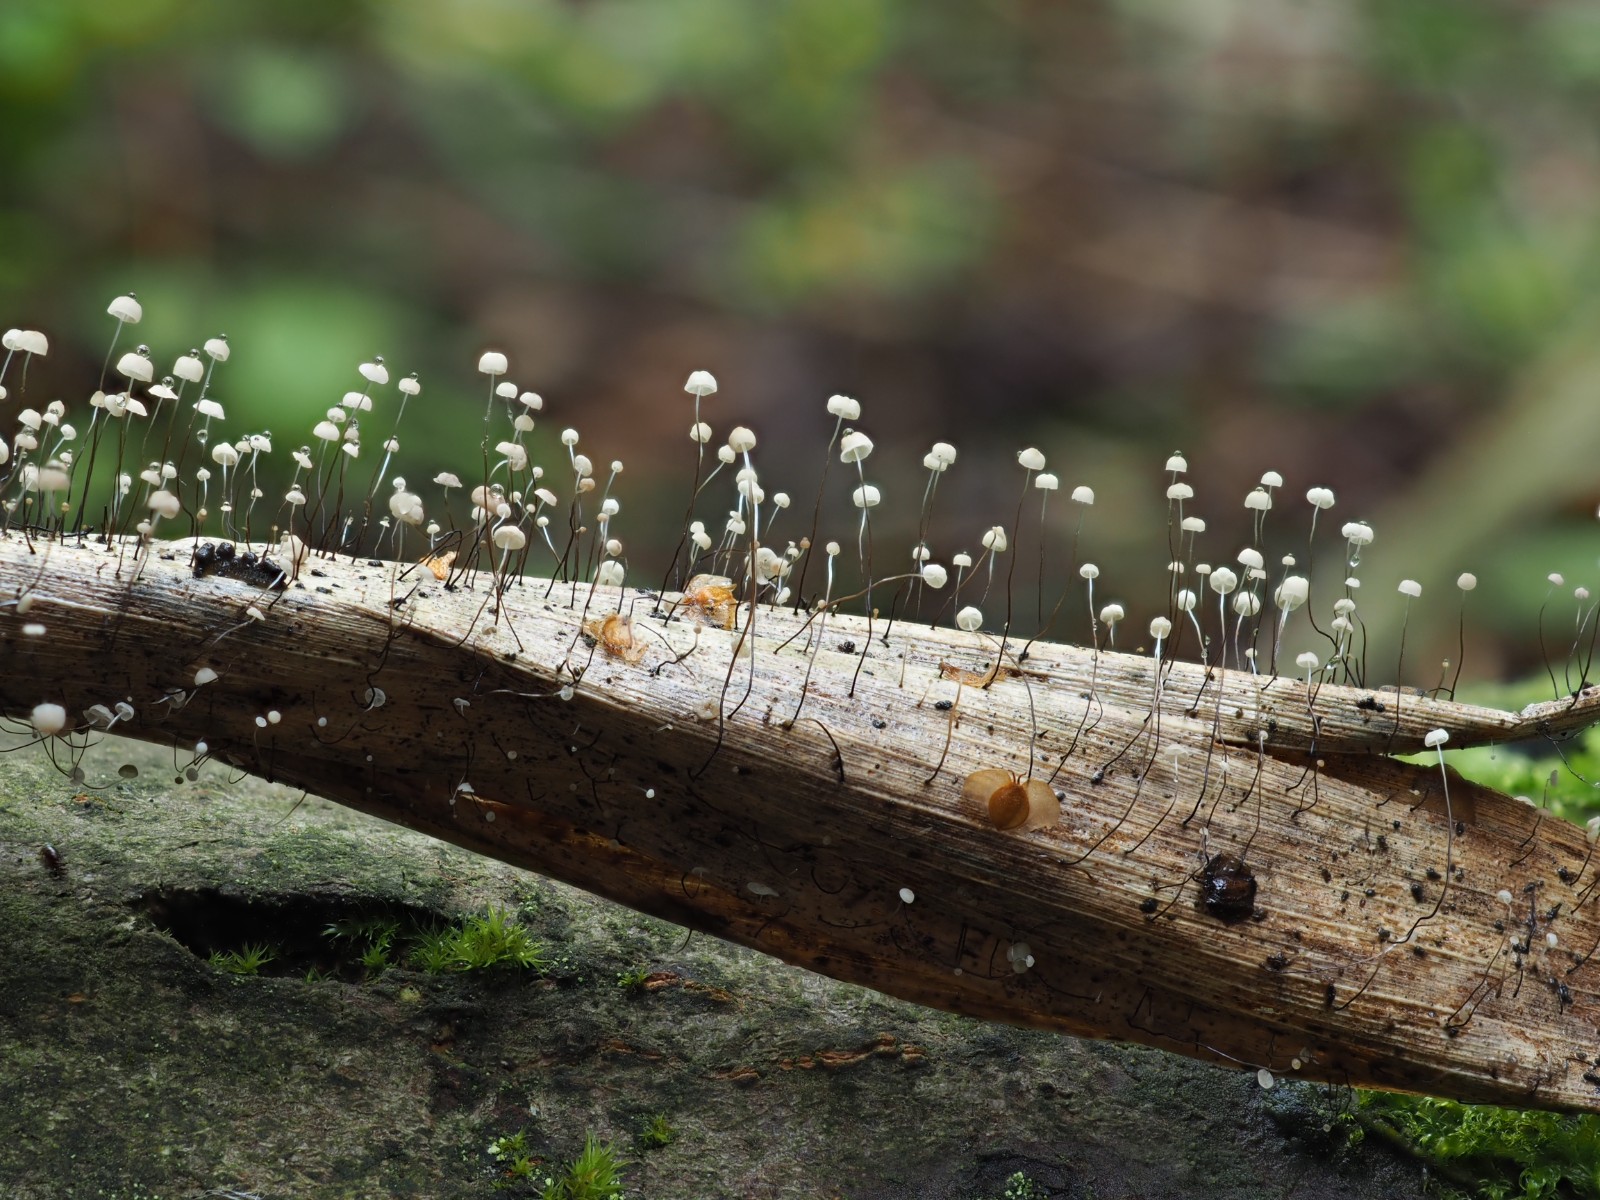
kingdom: Fungi
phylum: Basidiomycota
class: Agaricomycetes
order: Agaricales
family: Marasmiaceae
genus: Marasmius
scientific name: Marasmius limosus
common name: kær-bruskhat
